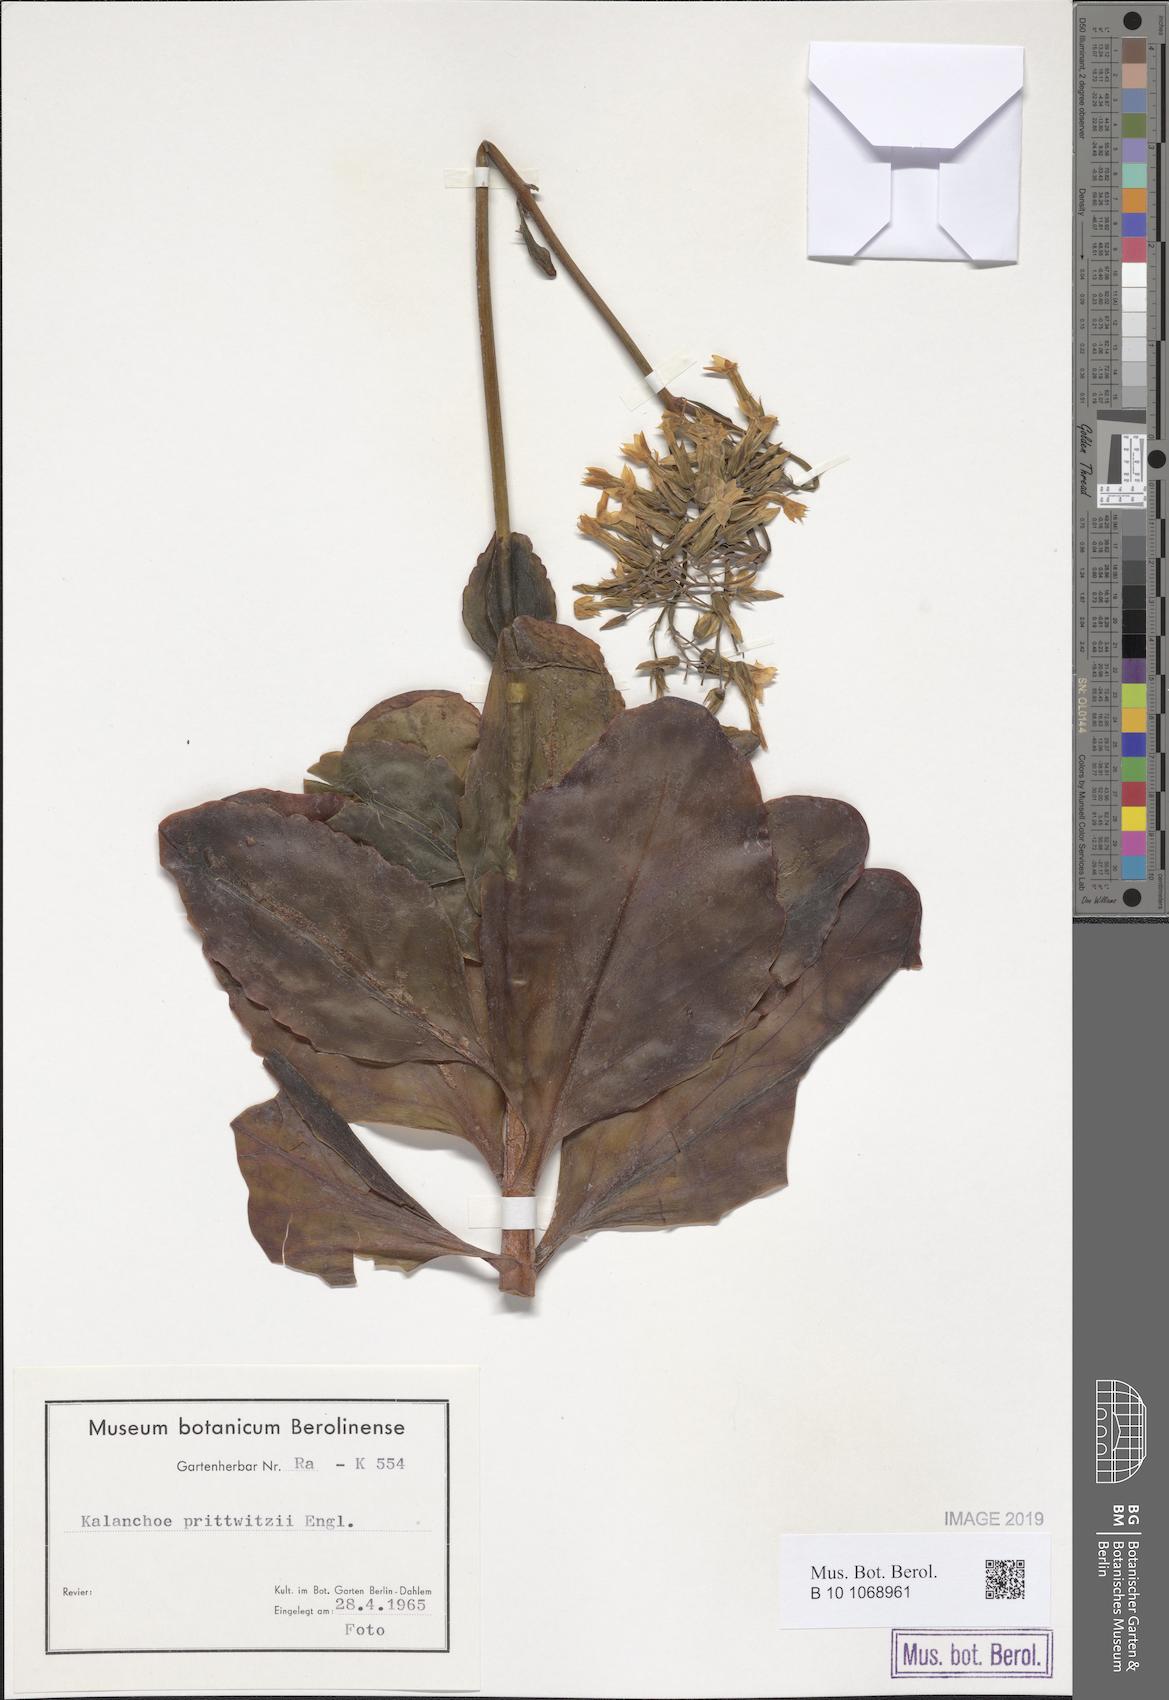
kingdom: Plantae
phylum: Tracheophyta
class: Magnoliopsida
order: Saxifragales
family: Crassulaceae
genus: Kalanchoe
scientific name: Kalanchoe prittwitzii
